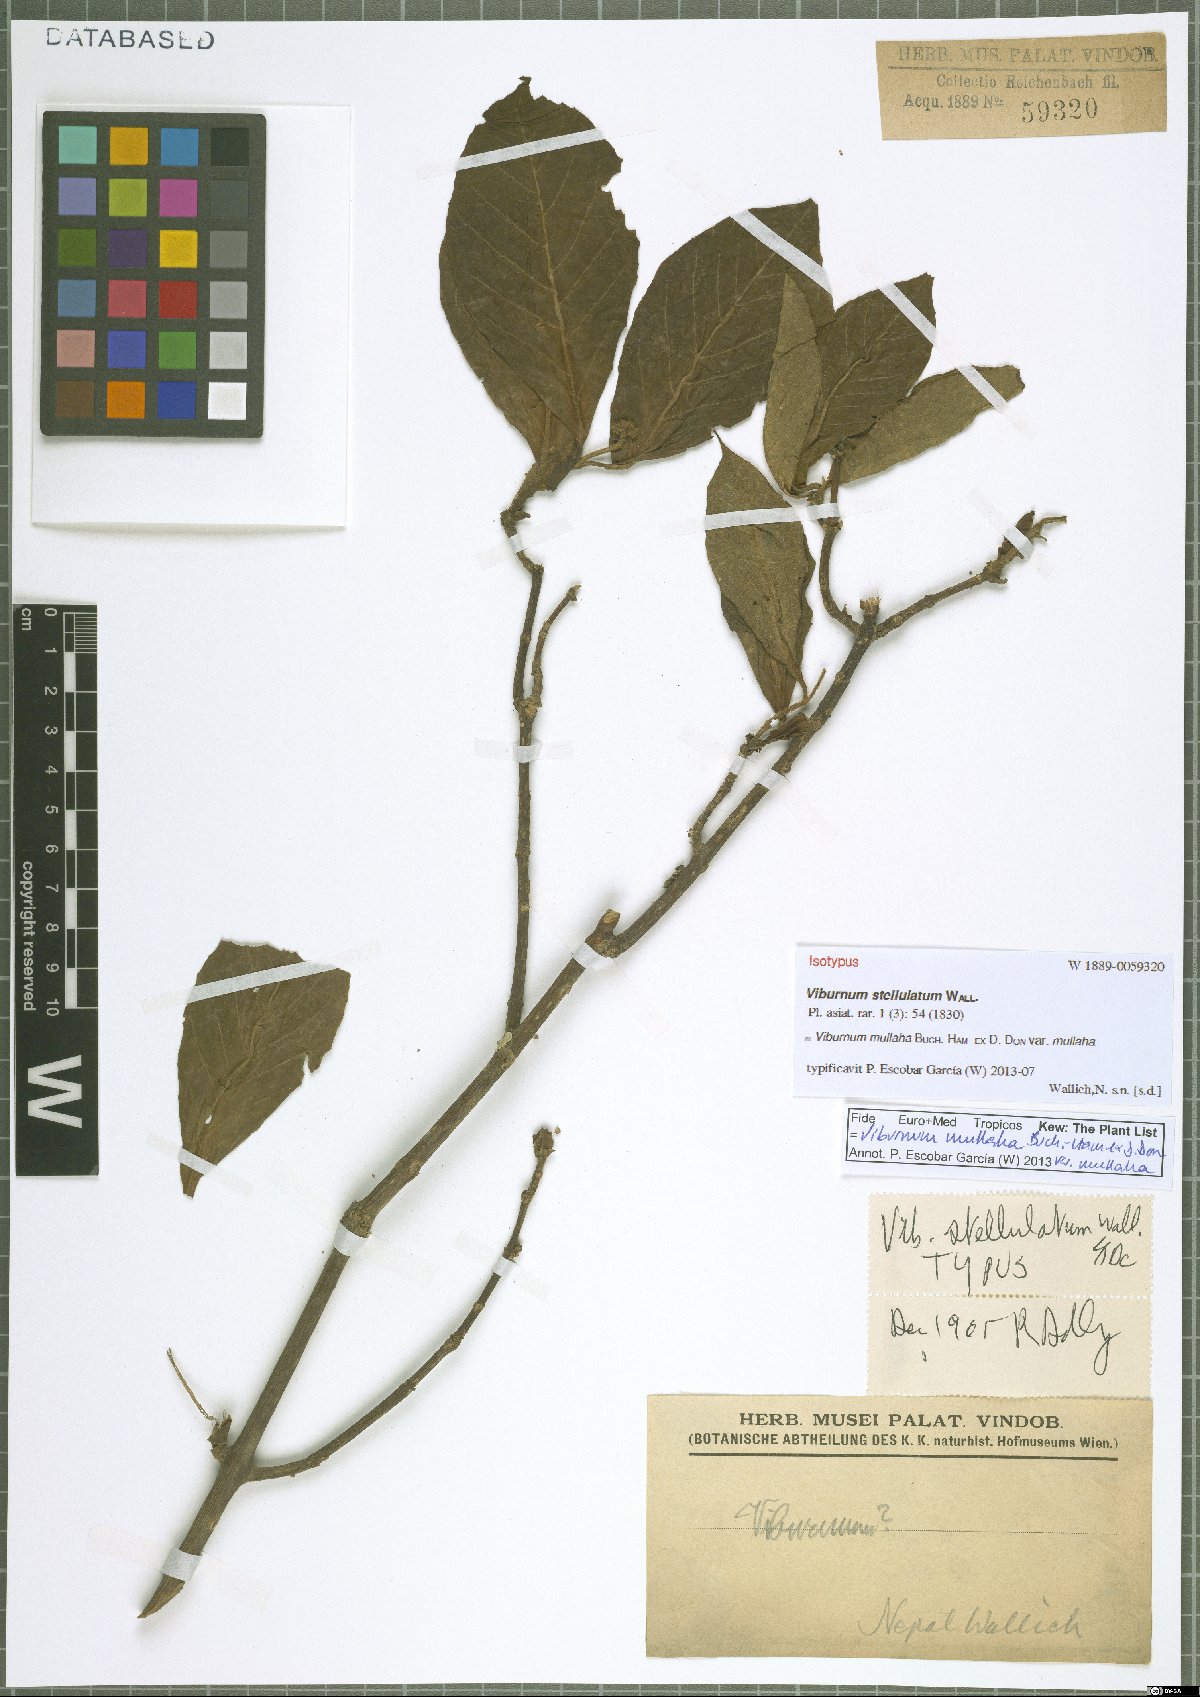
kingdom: Plantae
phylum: Tracheophyta
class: Magnoliopsida
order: Dipsacales
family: Viburnaceae
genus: Viburnum
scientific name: Viburnum mullaha
